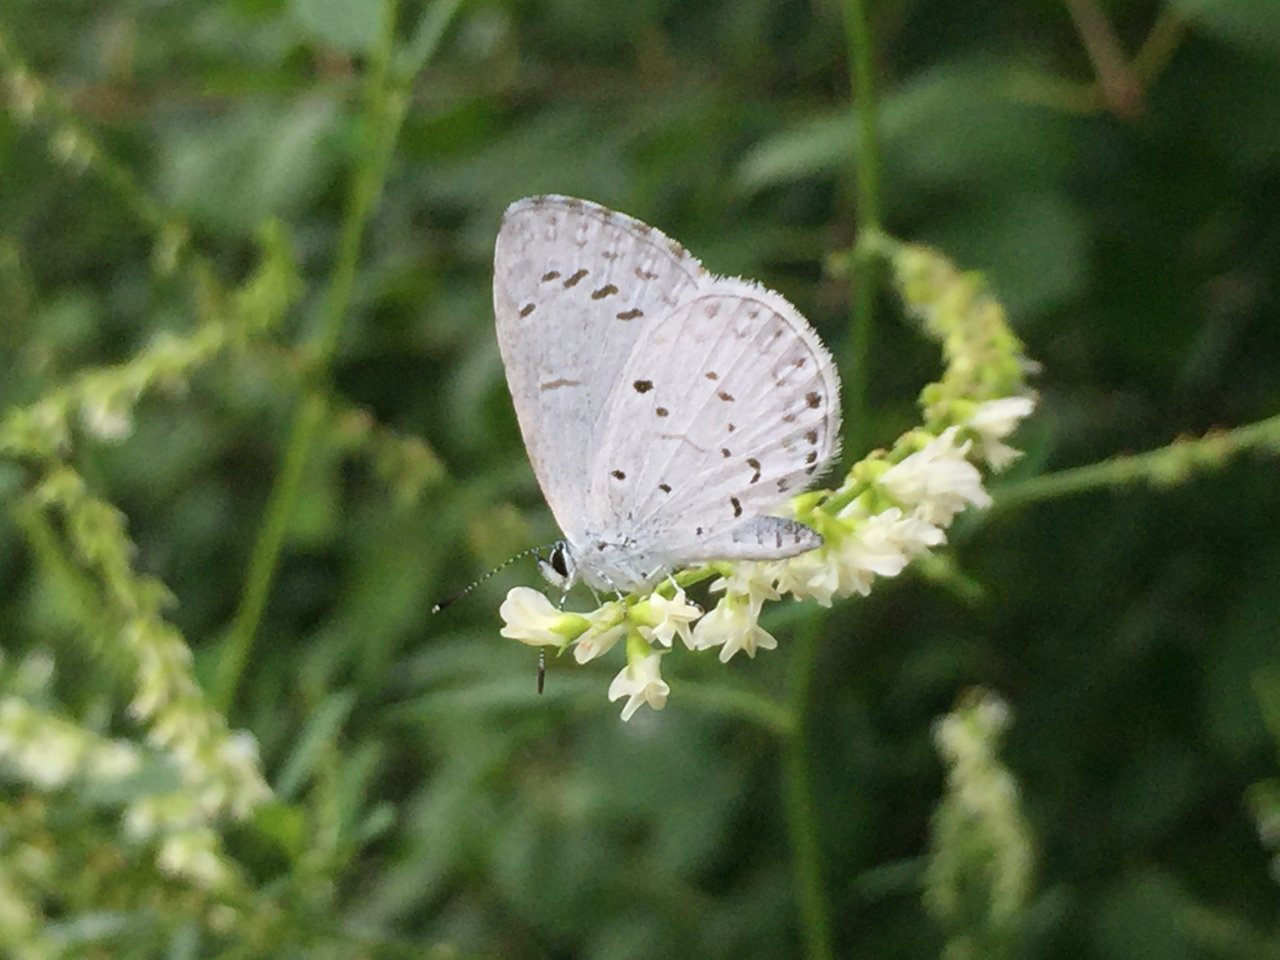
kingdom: Animalia
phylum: Arthropoda
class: Insecta
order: Lepidoptera
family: Lycaenidae
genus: Cyaniris
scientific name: Cyaniris neglecta
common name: Summer Azure
